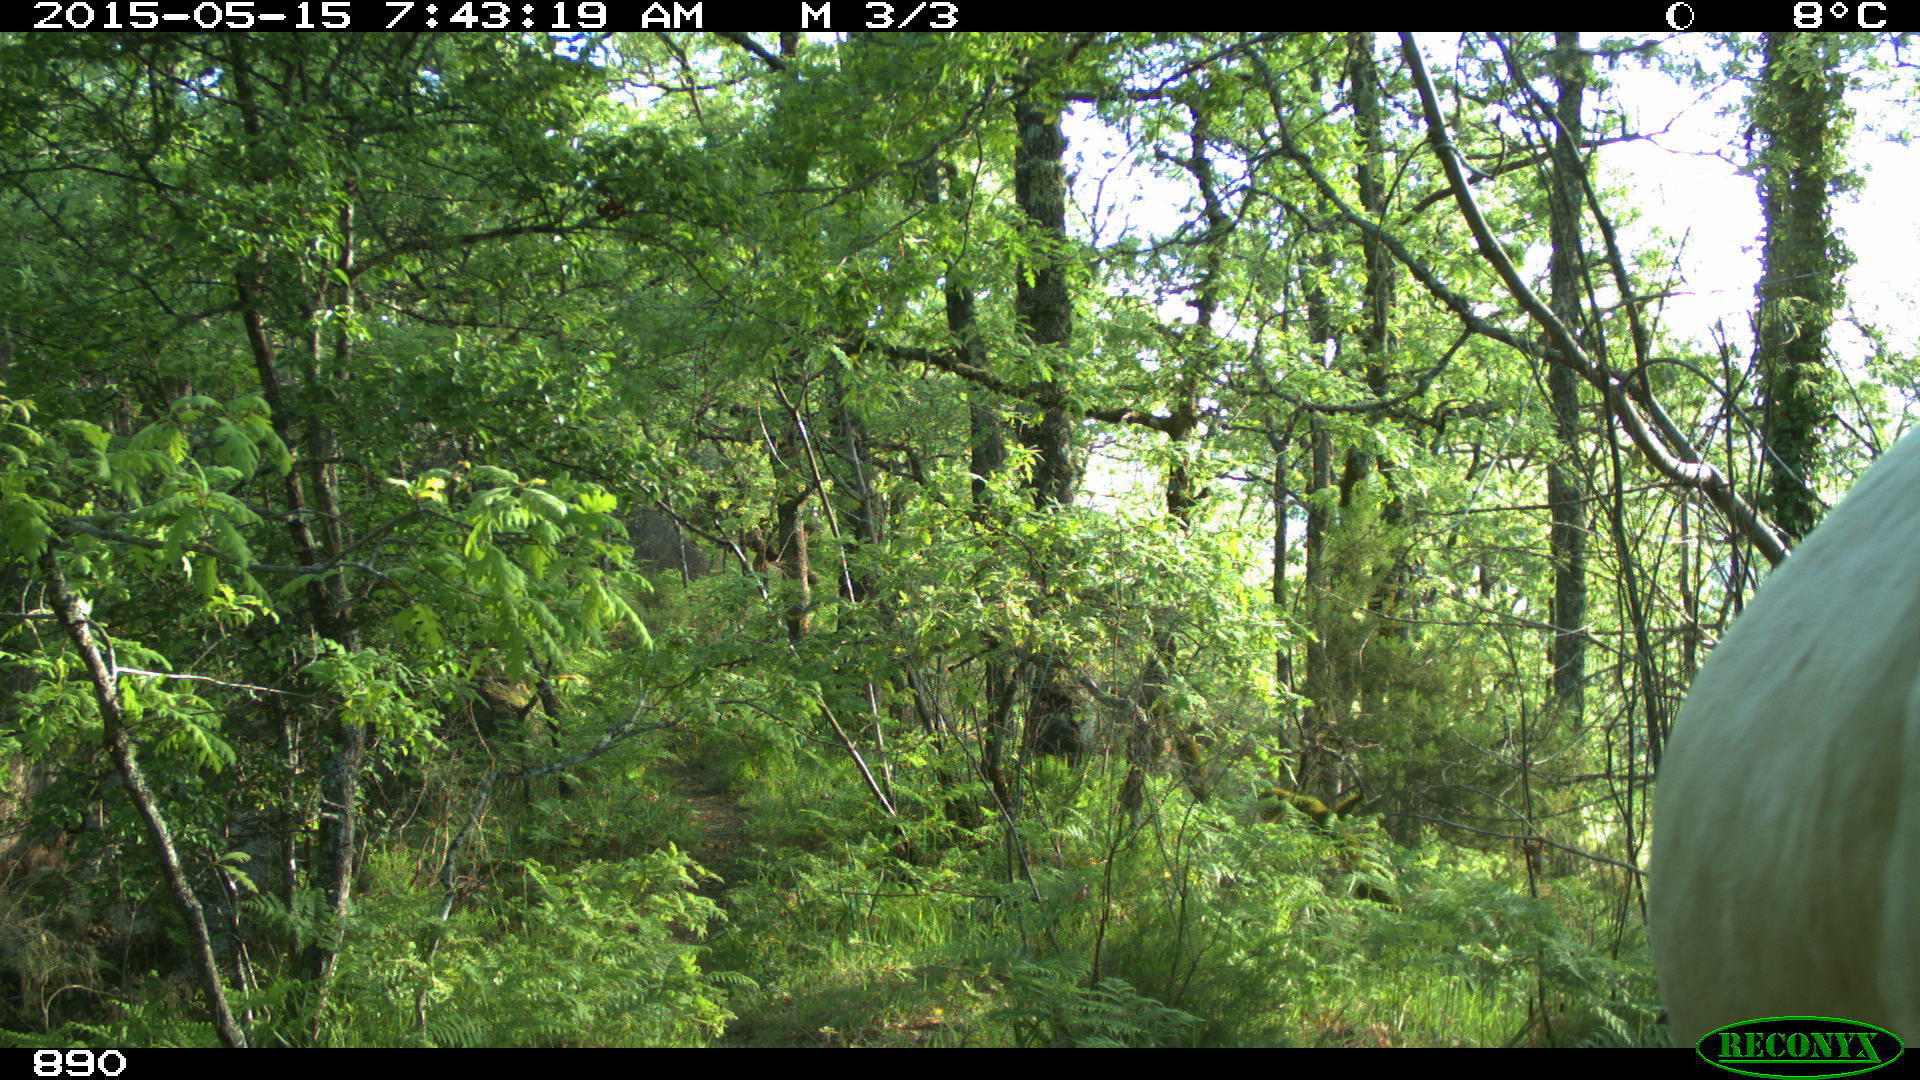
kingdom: Animalia
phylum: Chordata
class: Mammalia
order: Artiodactyla
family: Bovidae
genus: Bos
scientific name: Bos taurus
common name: Domesticated cattle
